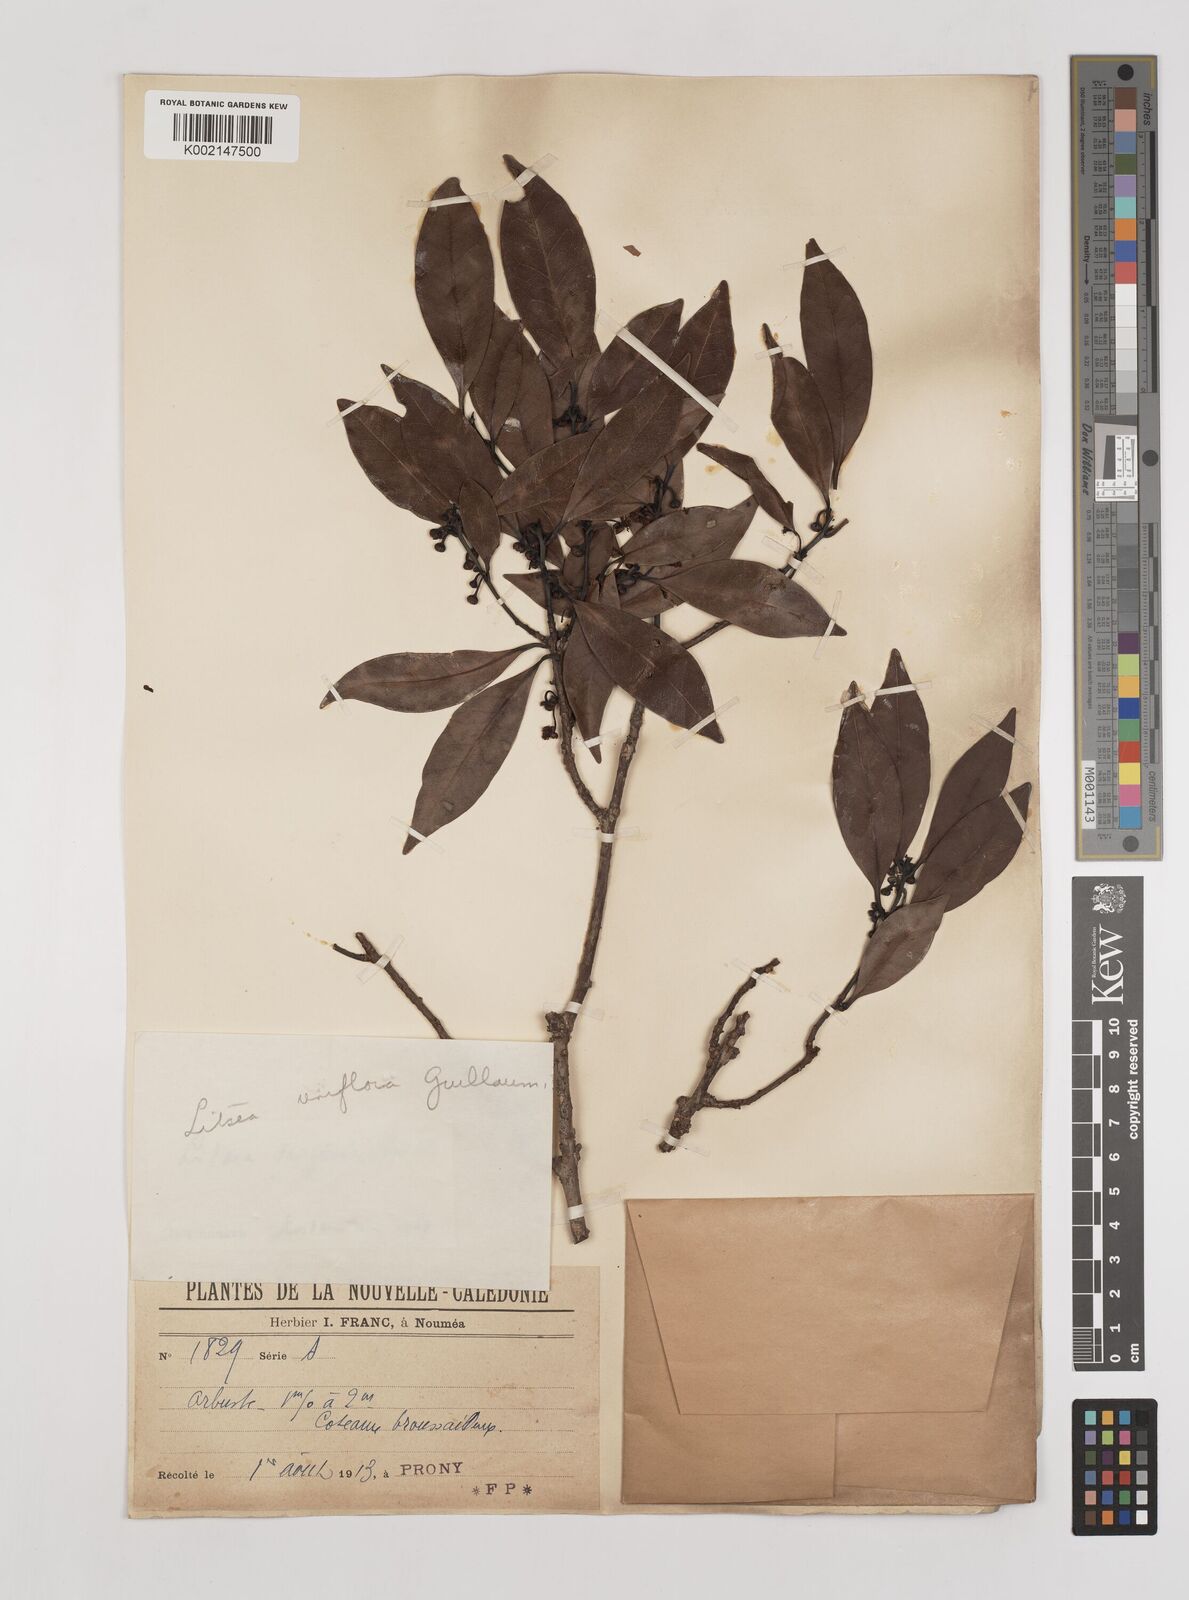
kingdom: Plantae
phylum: Tracheophyta
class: Magnoliopsida
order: Laurales
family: Lauraceae
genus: Litsea
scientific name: Litsea triflora
